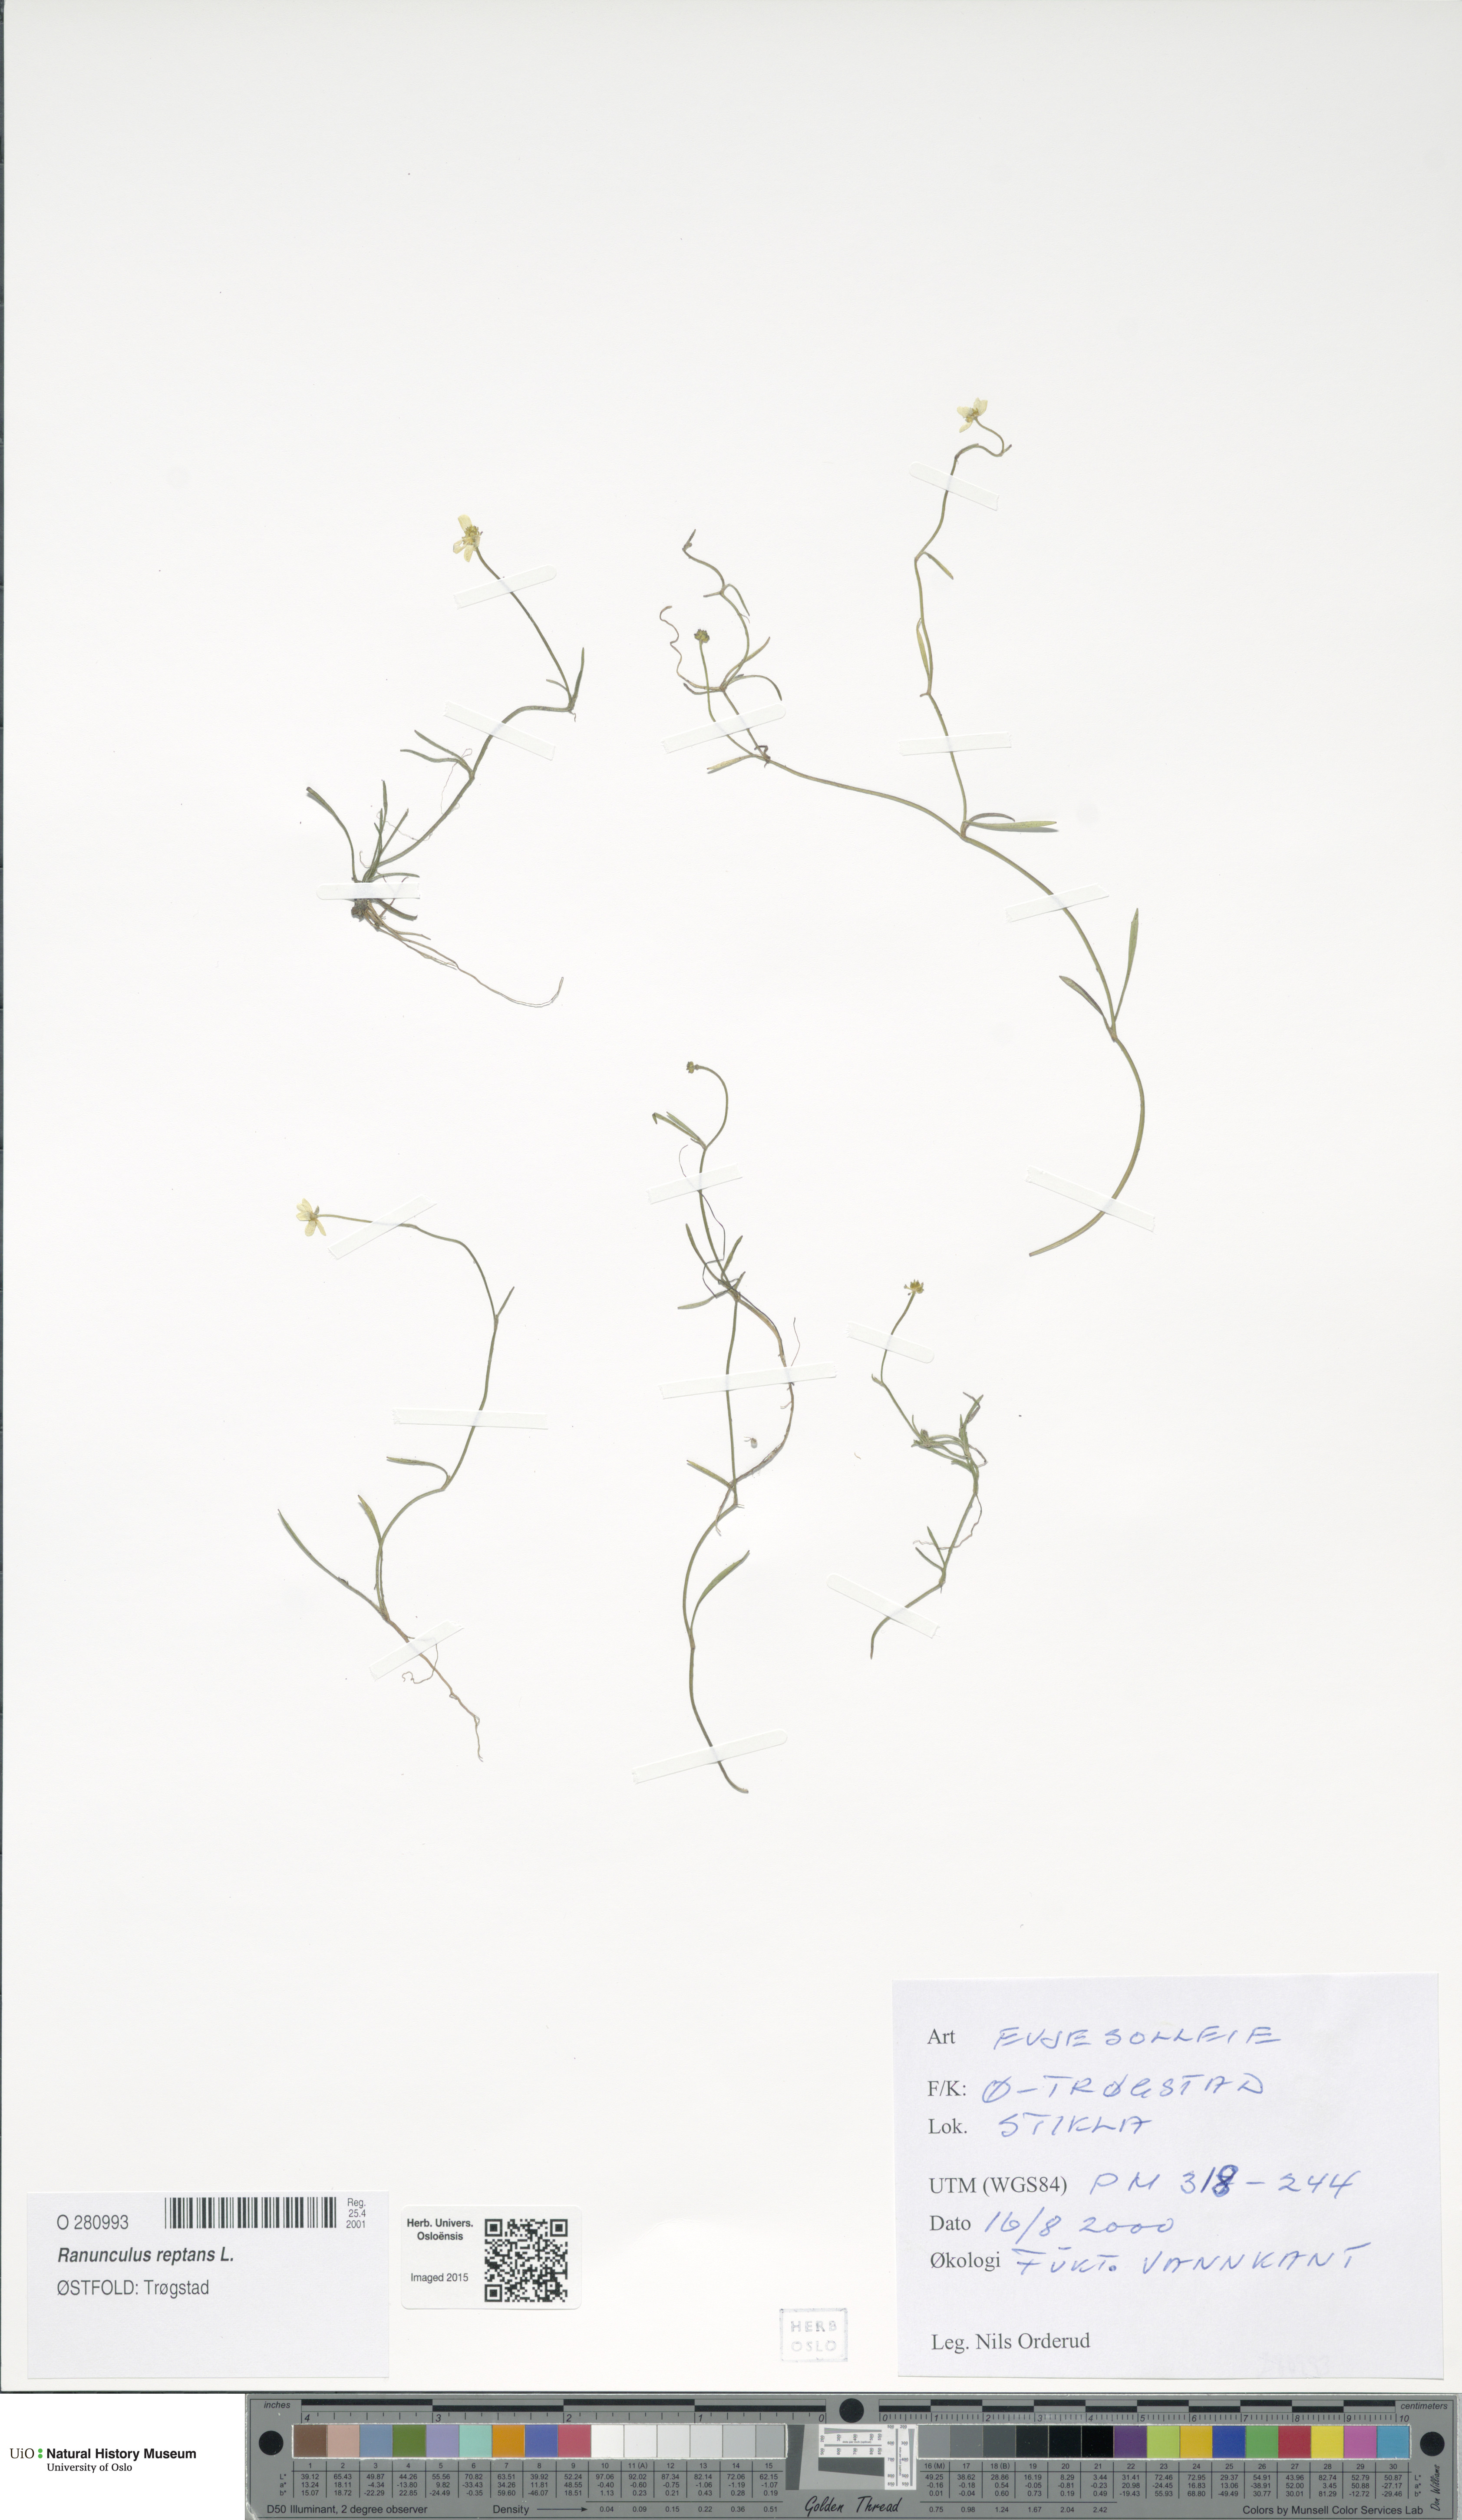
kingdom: Plantae
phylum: Tracheophyta
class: Magnoliopsida
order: Ranunculales
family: Ranunculaceae
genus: Ranunculus
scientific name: Ranunculus reptans
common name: Creeping spearwort
